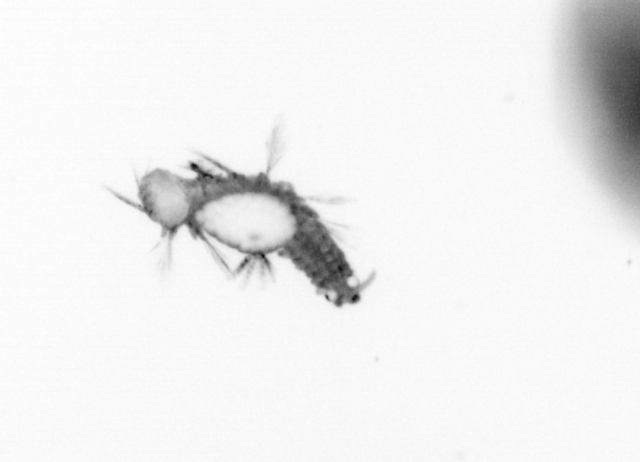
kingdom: Animalia
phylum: Annelida
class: Polychaeta
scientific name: Polychaeta
